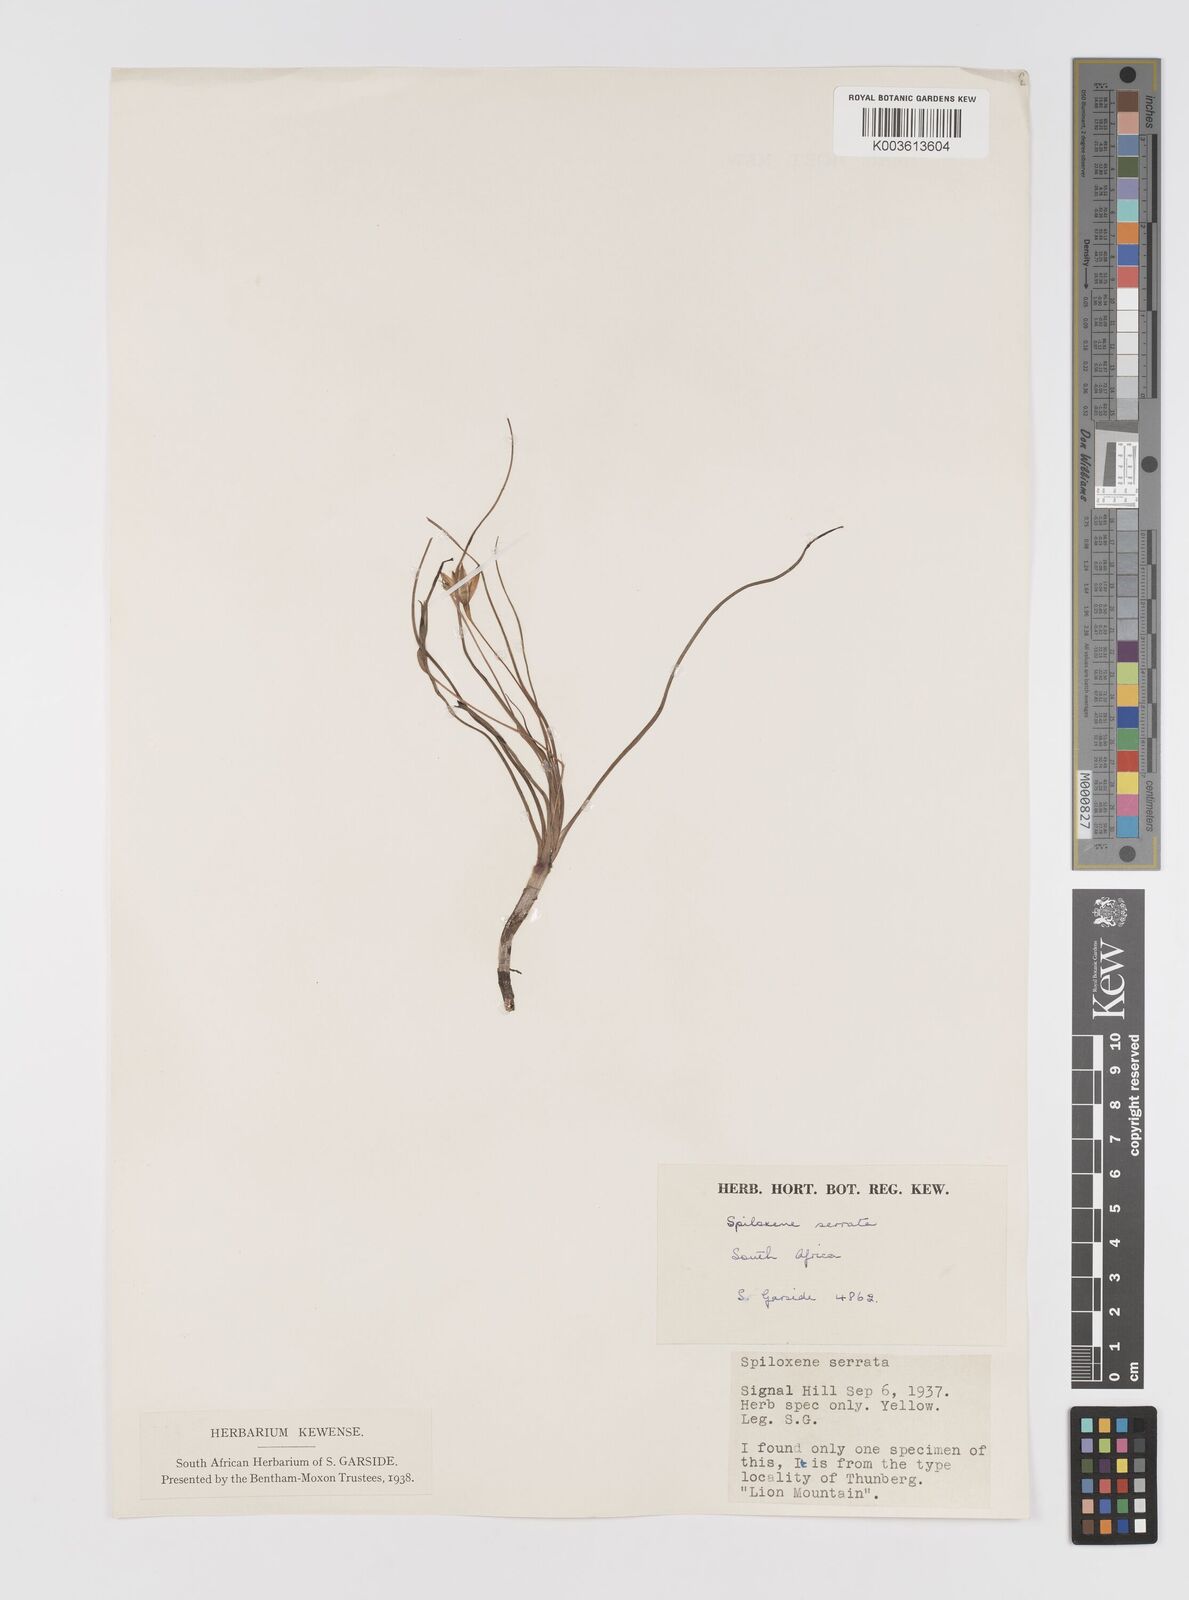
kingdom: Plantae
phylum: Tracheophyta
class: Liliopsida
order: Asparagales
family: Hypoxidaceae
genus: Pauridia
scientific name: Pauridia serrata
